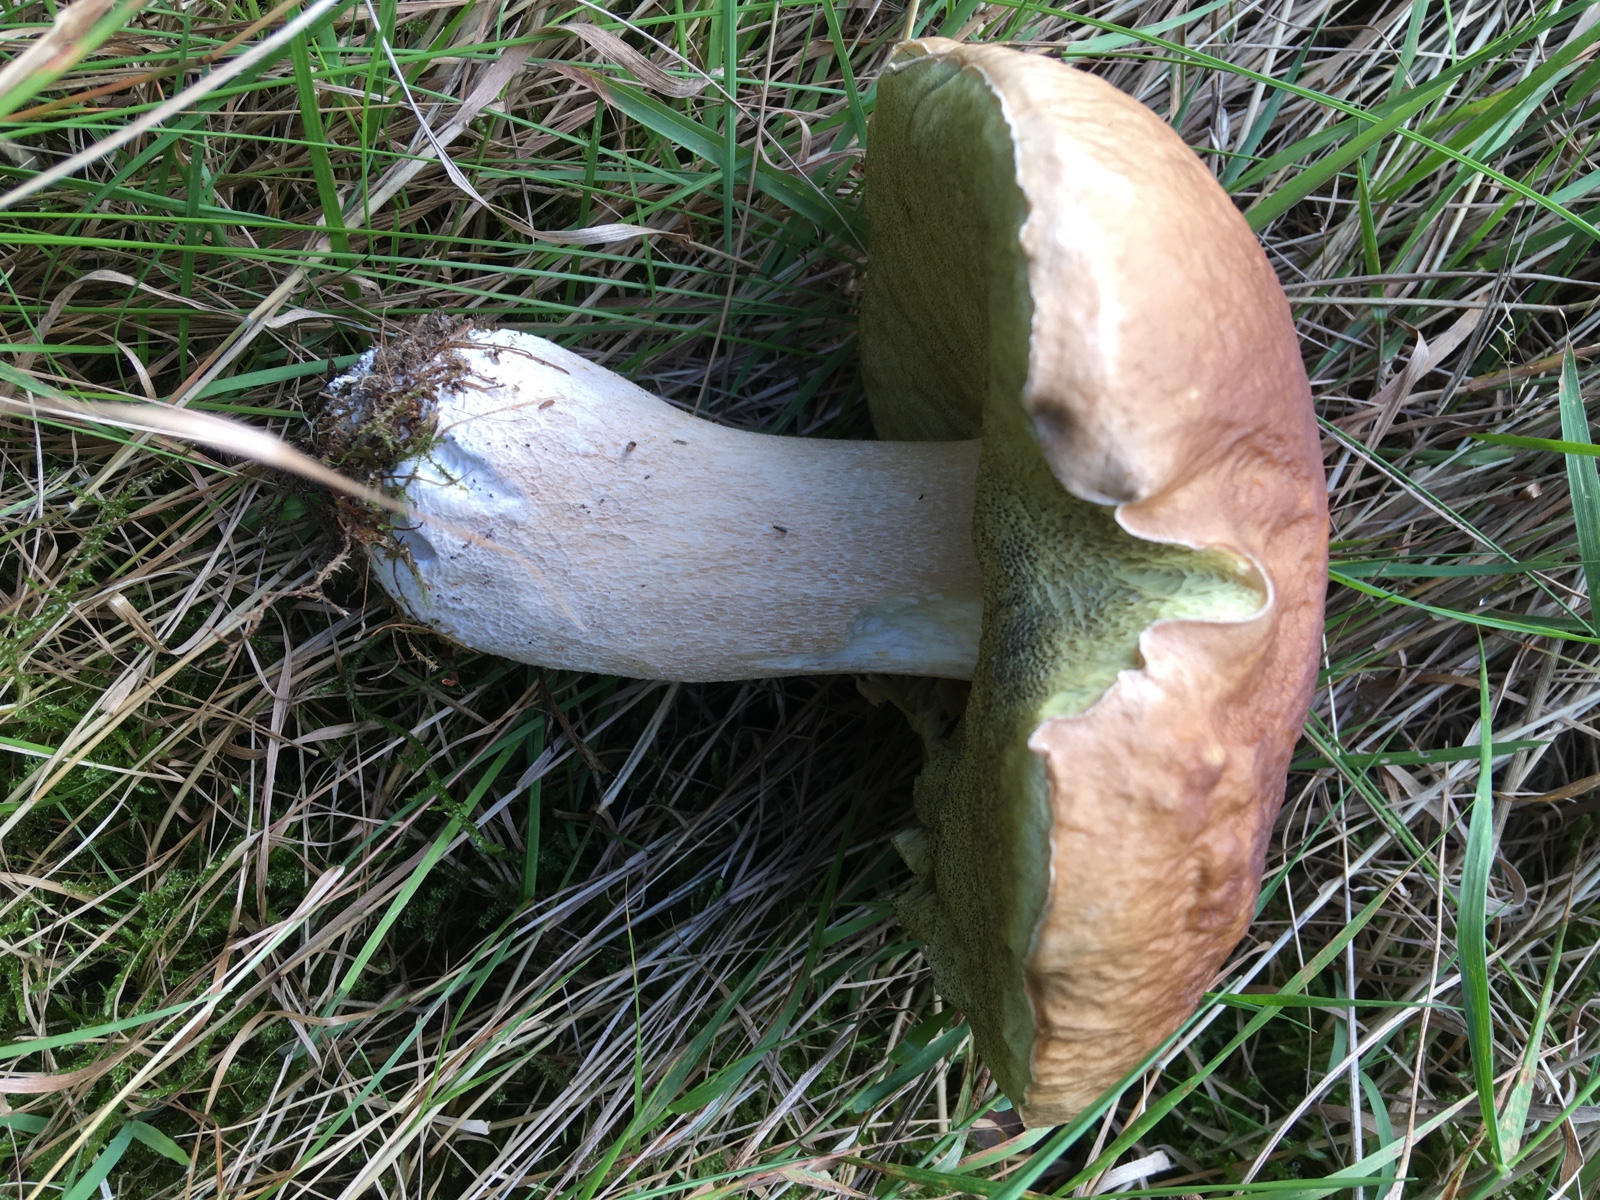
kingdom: Fungi
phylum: Basidiomycota
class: Agaricomycetes
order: Boletales
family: Boletaceae
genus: Boletus
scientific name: Boletus edulis
